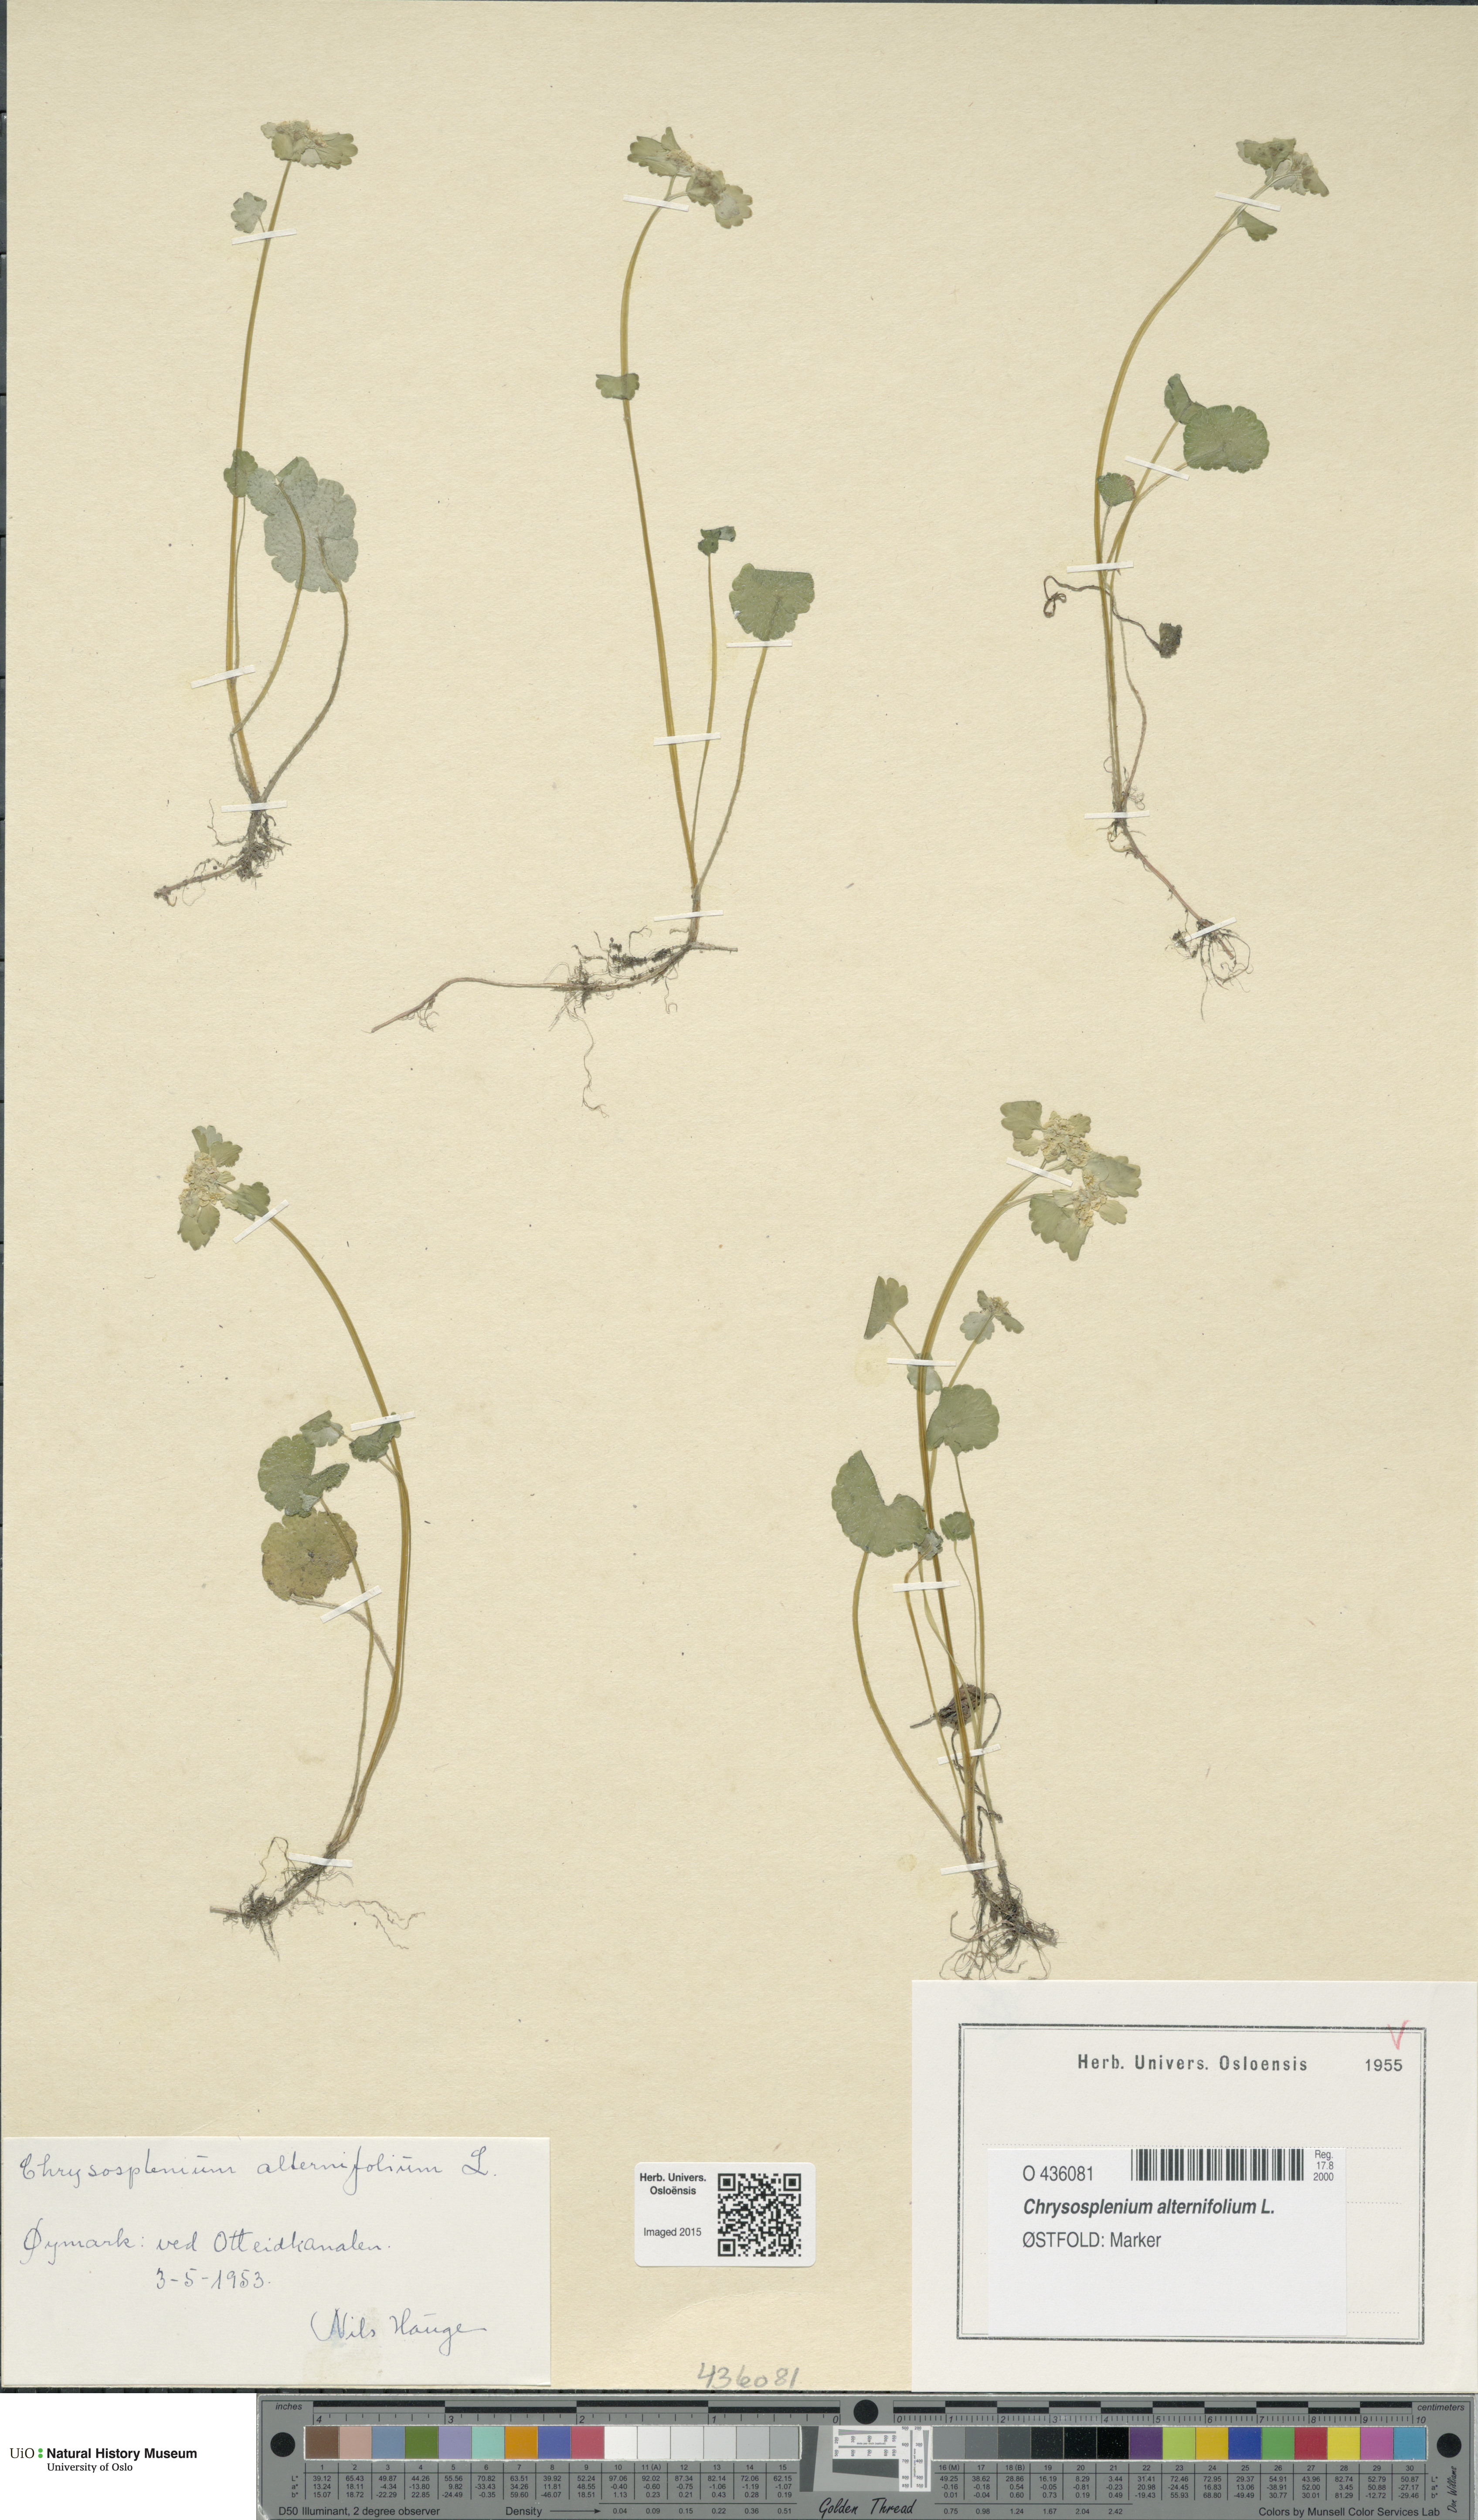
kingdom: Plantae
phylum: Tracheophyta
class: Magnoliopsida
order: Saxifragales
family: Saxifragaceae
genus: Chrysosplenium
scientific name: Chrysosplenium alternifolium
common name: Alternate-leaved golden-saxifrage
